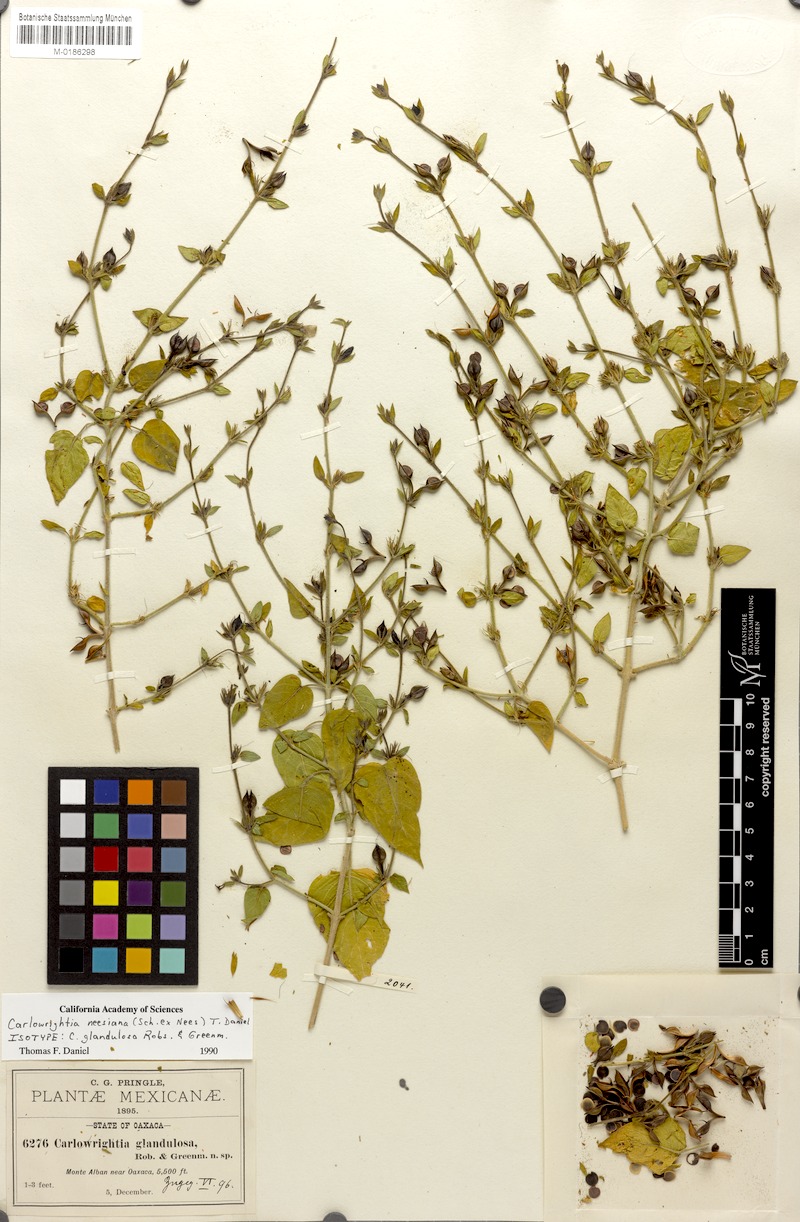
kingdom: Plantae
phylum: Tracheophyta
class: Magnoliopsida
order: Lamiales
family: Acanthaceae
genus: Carlowrightia
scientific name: Carlowrightia neesiana
